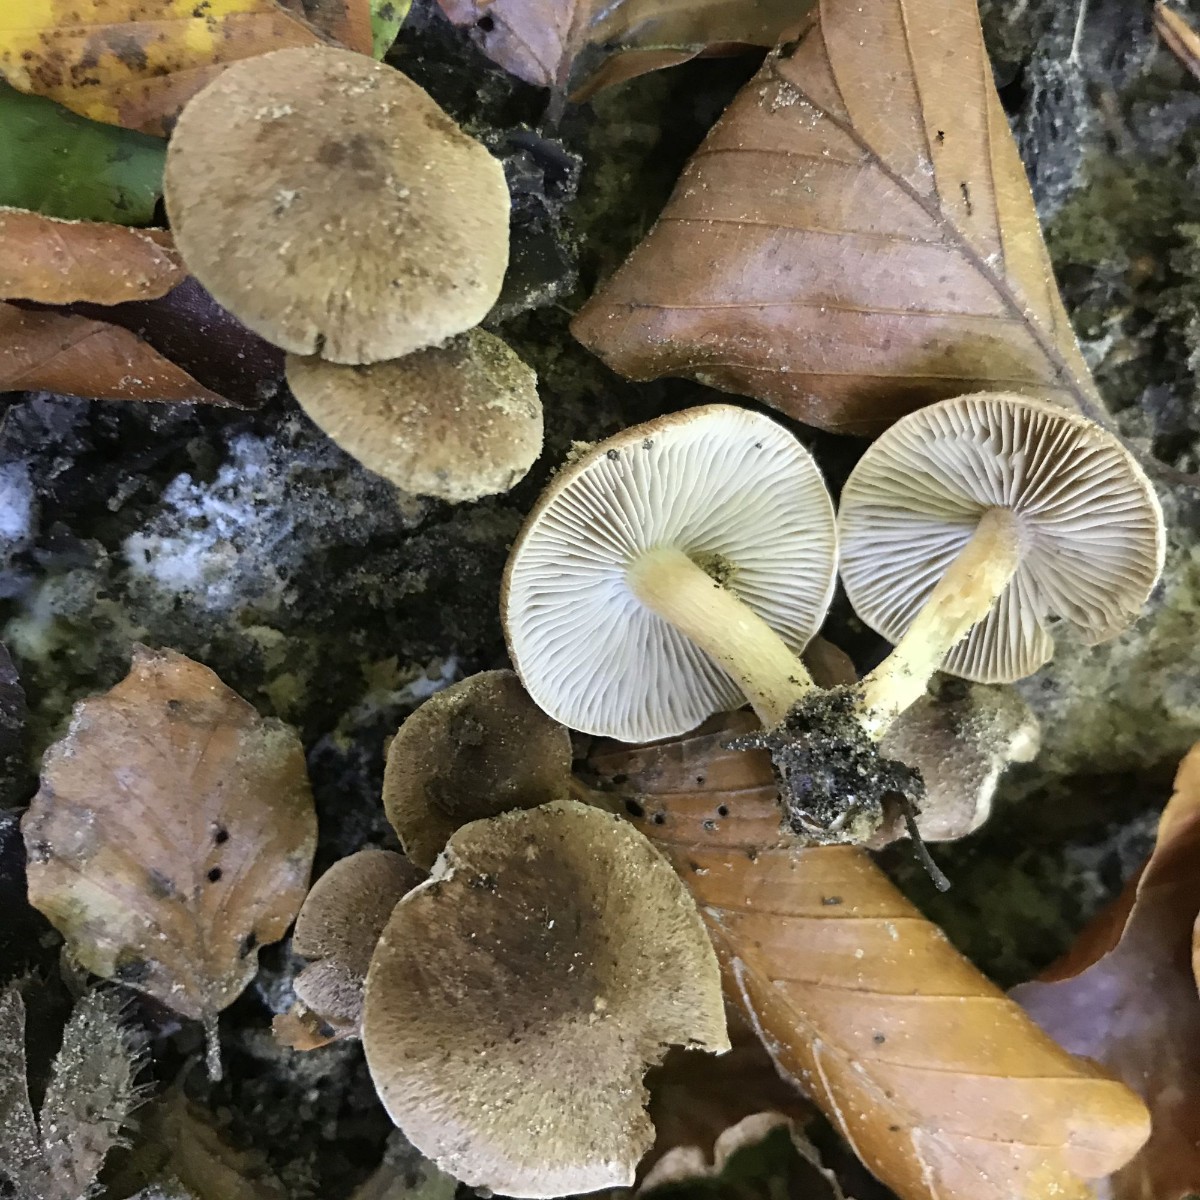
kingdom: Fungi
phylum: Basidiomycota
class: Agaricomycetes
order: Agaricales
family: Inocybaceae
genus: Inocybe
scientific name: Inocybe
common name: trævlhat
